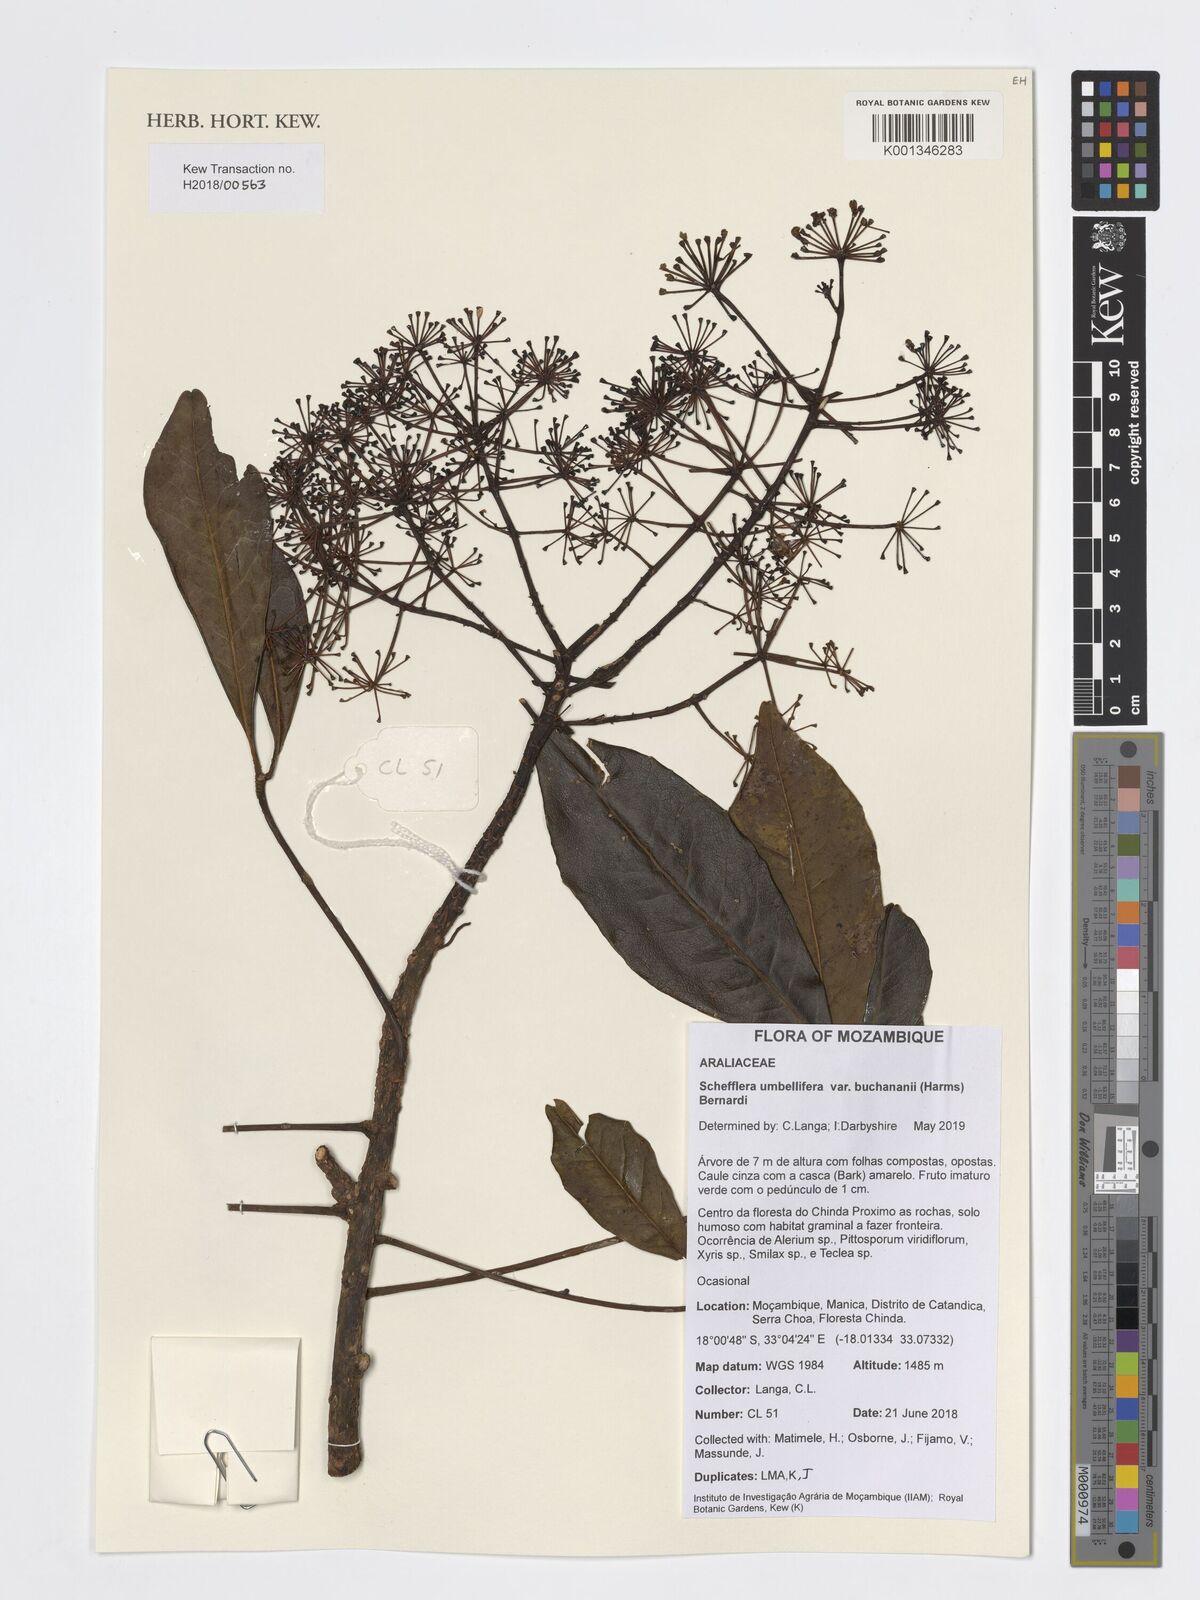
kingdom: Plantae
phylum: Tracheophyta
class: Magnoliopsida
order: Apiales
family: Araliaceae
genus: Neocussonia
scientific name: Neocussonia umbellifera
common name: False cabbage tree
